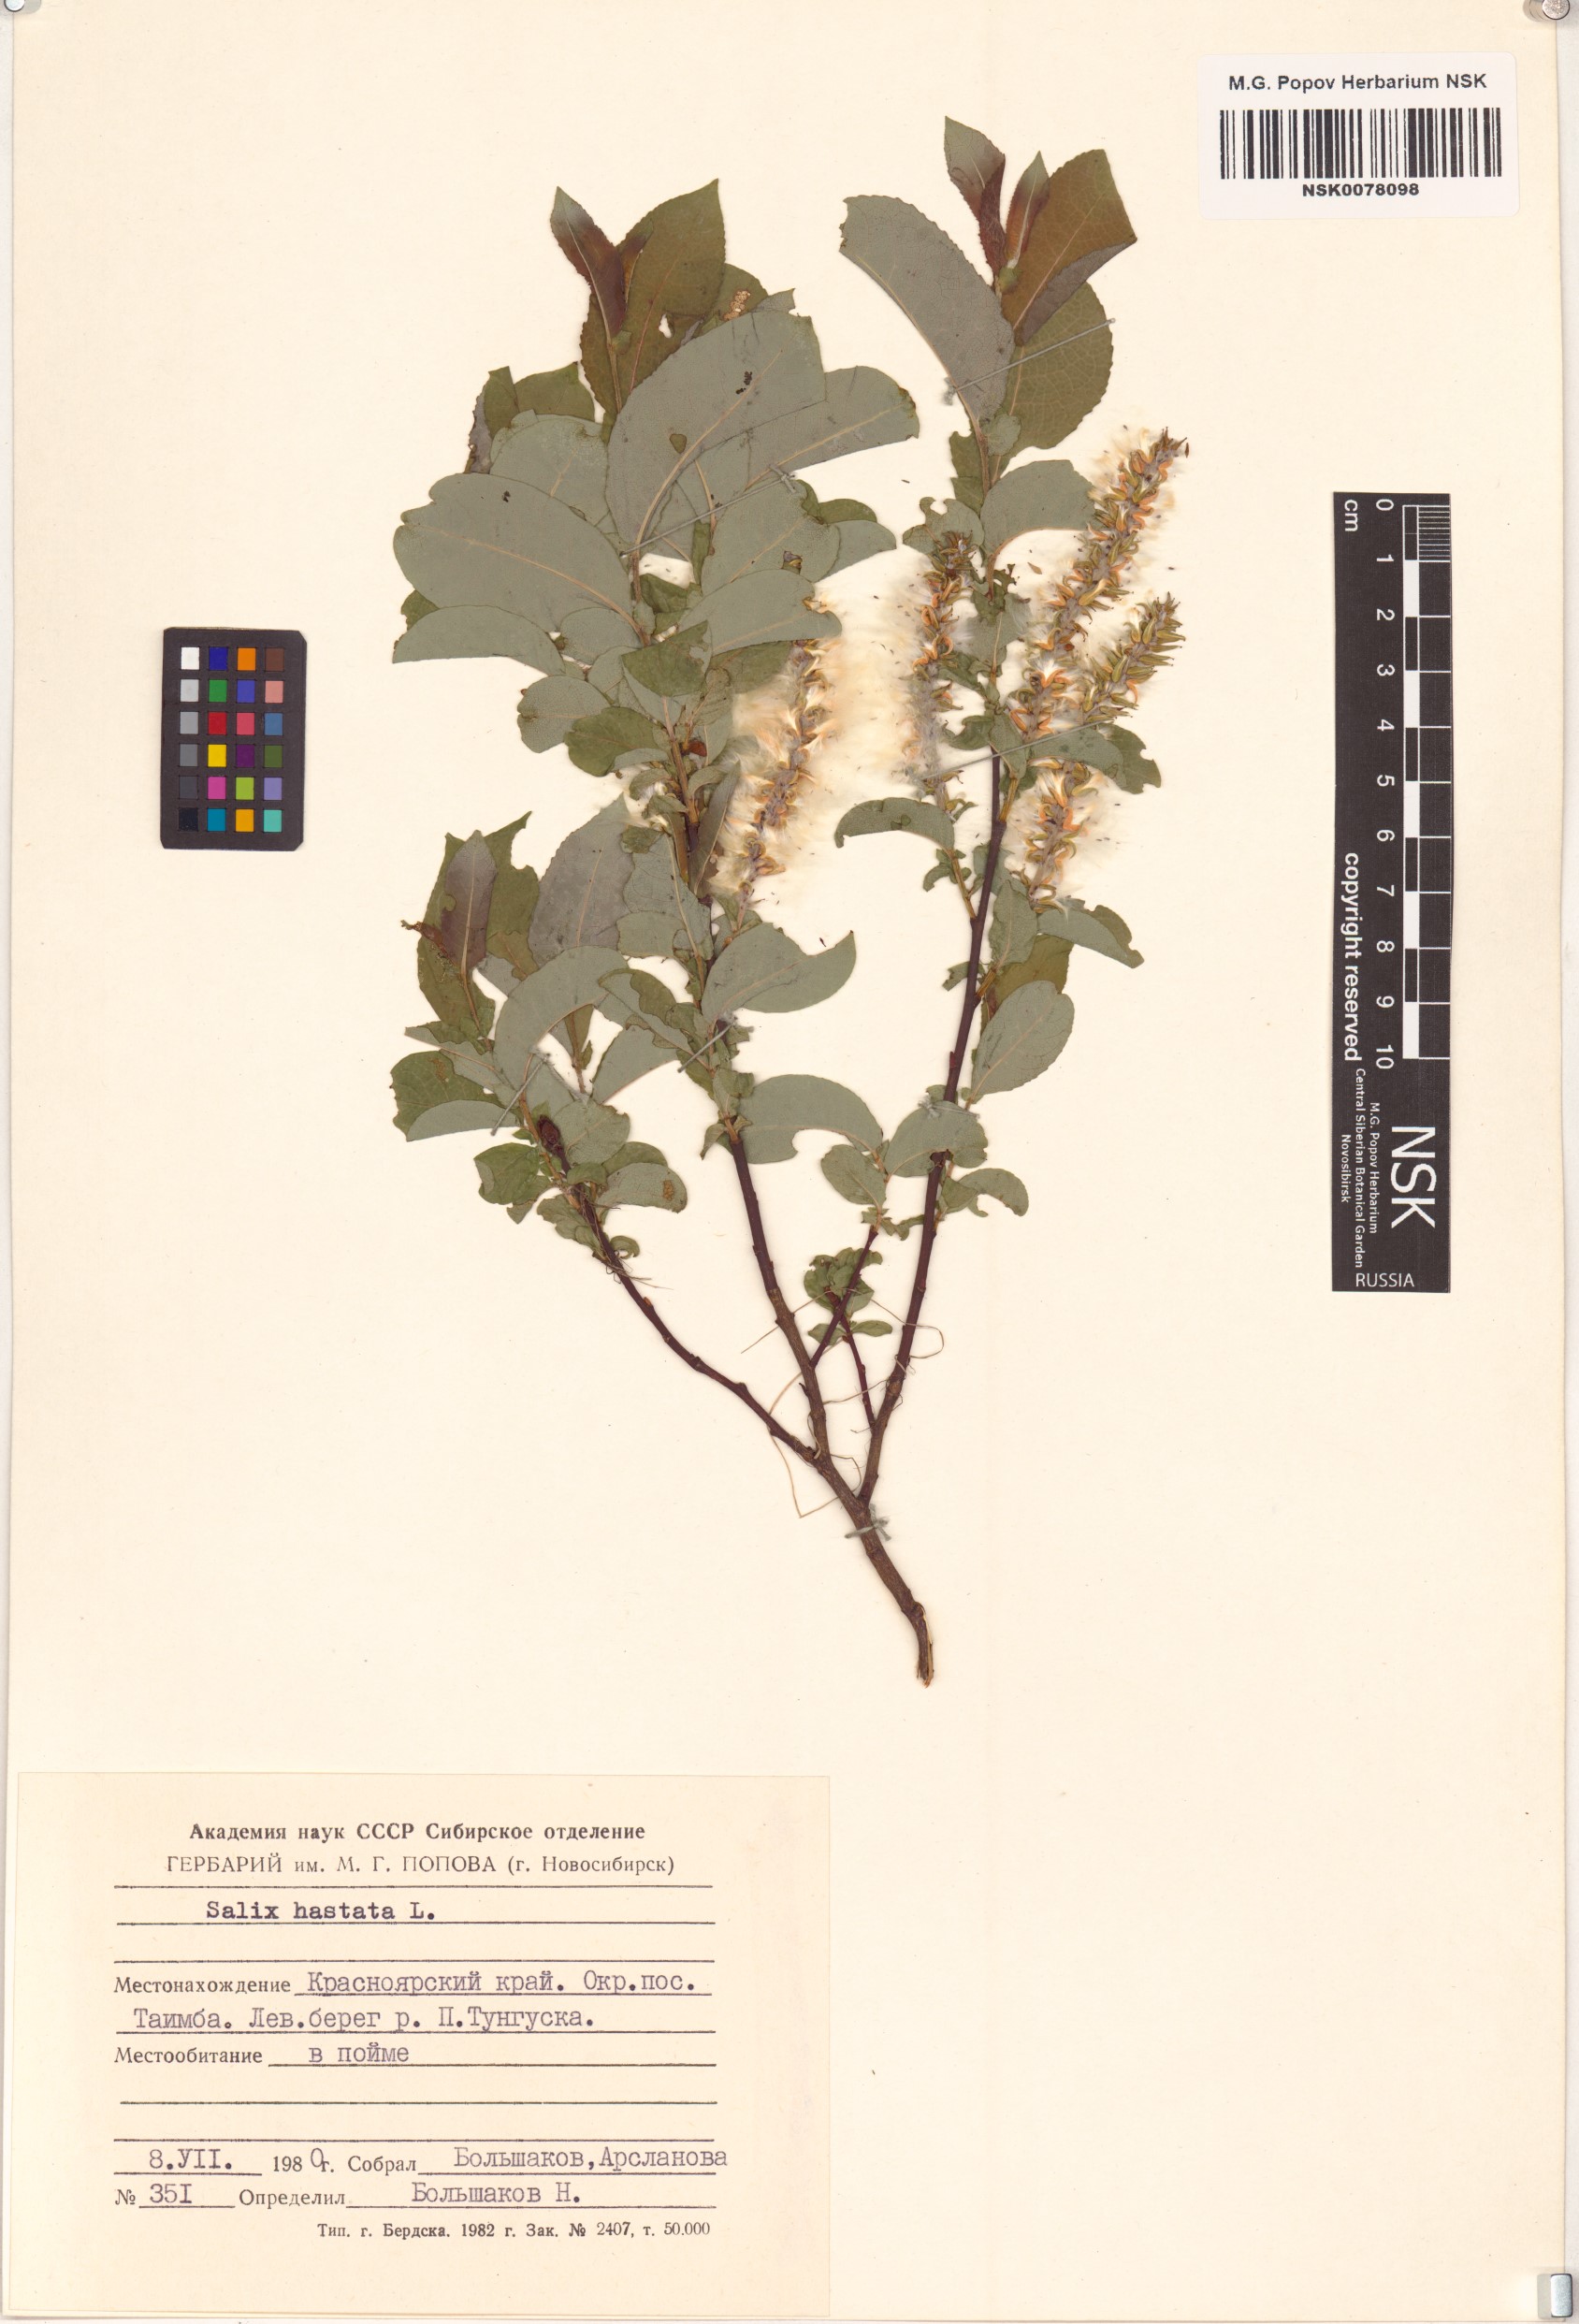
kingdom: Plantae
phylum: Tracheophyta
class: Magnoliopsida
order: Malpighiales
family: Salicaceae
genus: Salix
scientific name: Salix hastata
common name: Halberd willow
